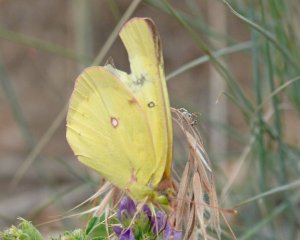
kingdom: Animalia
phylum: Arthropoda
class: Insecta
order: Lepidoptera
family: Pieridae
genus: Colias
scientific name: Colias philodice
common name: Clouded Sulphur
